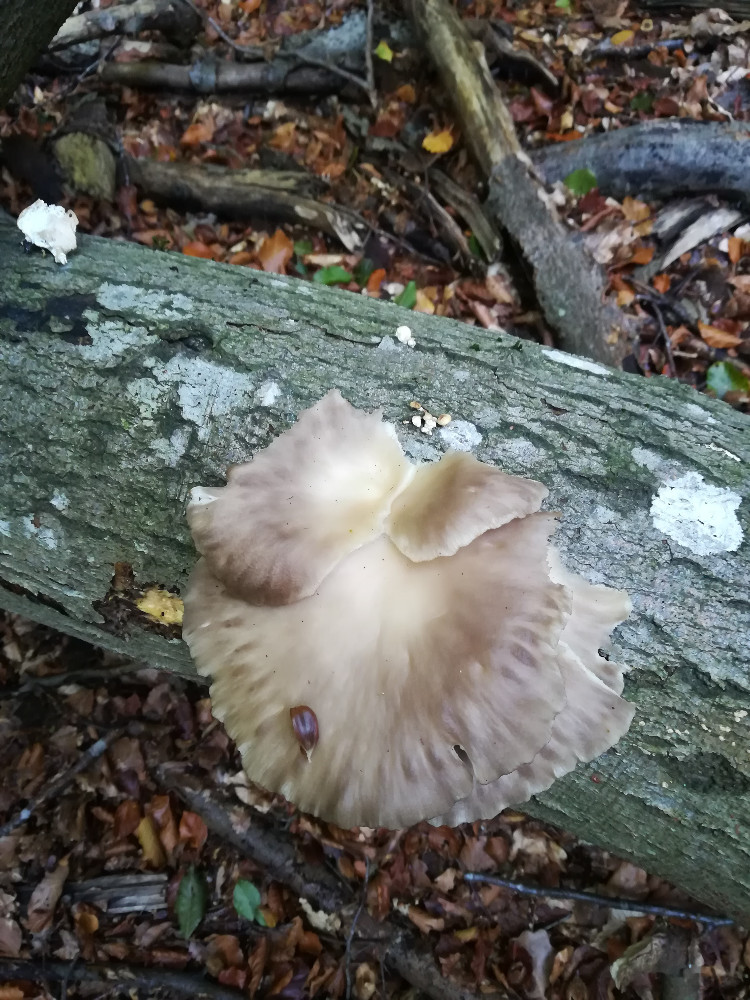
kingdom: Fungi
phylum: Basidiomycota
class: Agaricomycetes
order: Agaricales
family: Pleurotaceae
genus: Pleurotus
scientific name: Pleurotus ostreatus
